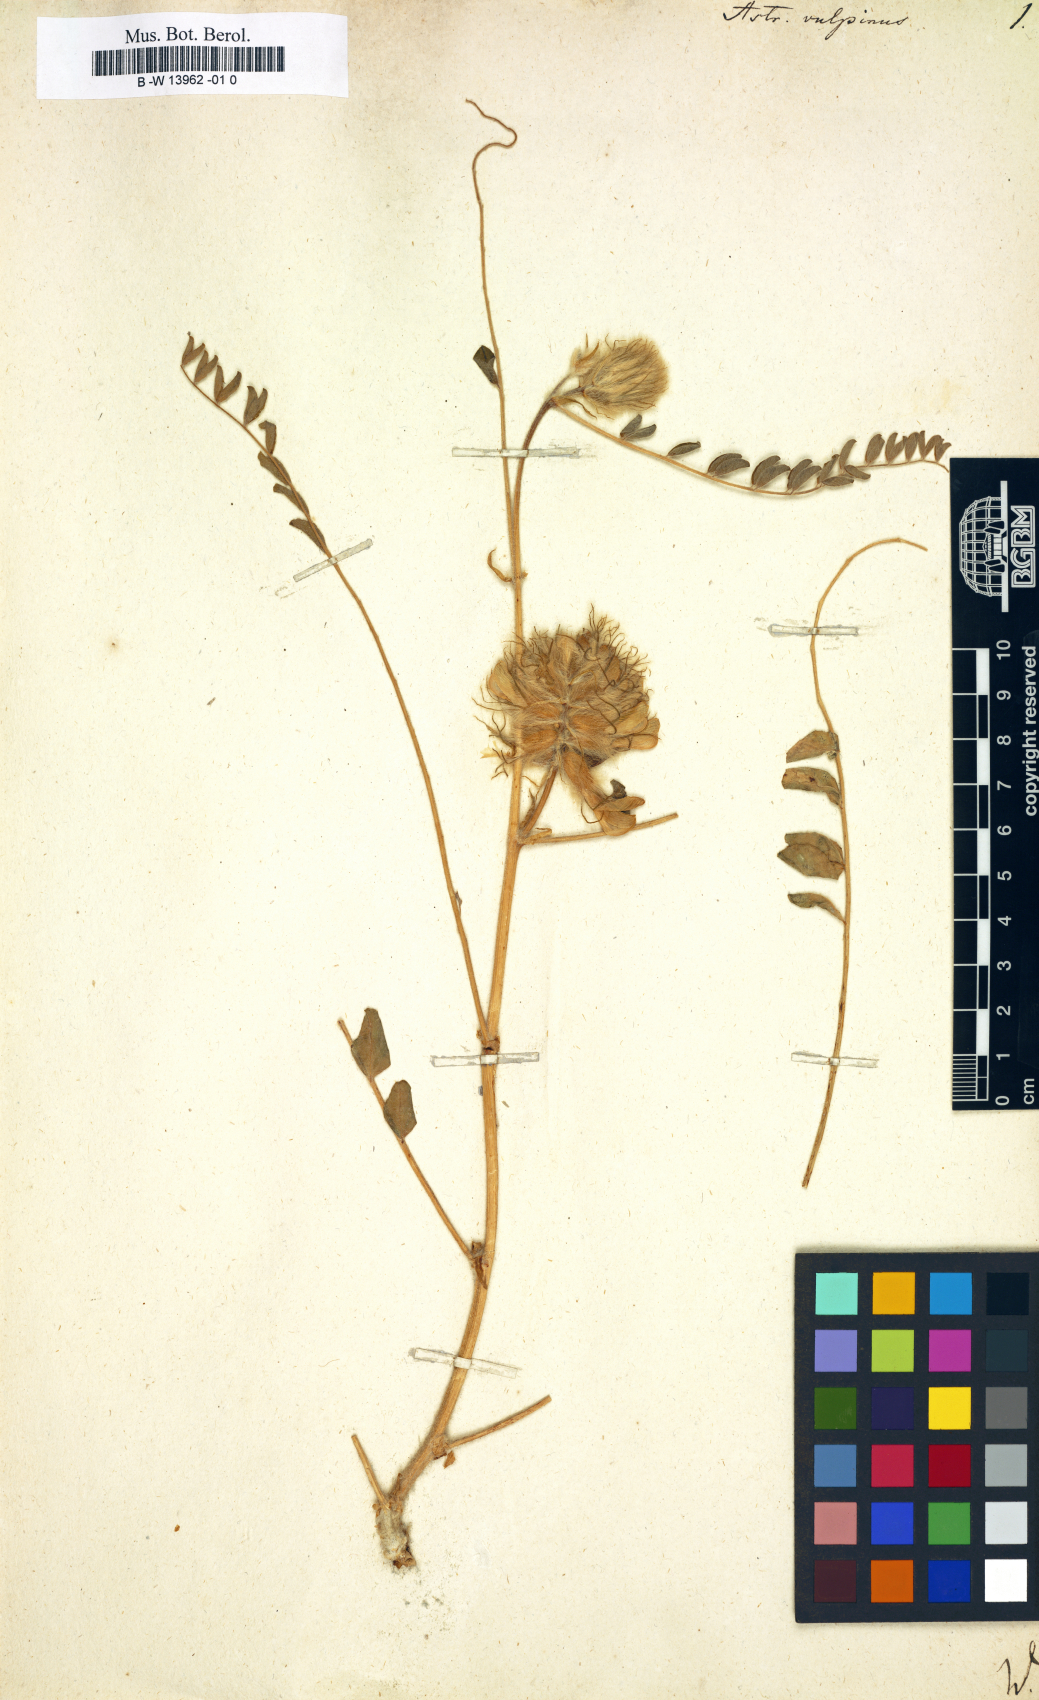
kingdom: Plantae
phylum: Tracheophyta
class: Magnoliopsida
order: Fabales
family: Fabaceae
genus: Astragalus
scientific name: Astragalus vulpinus
